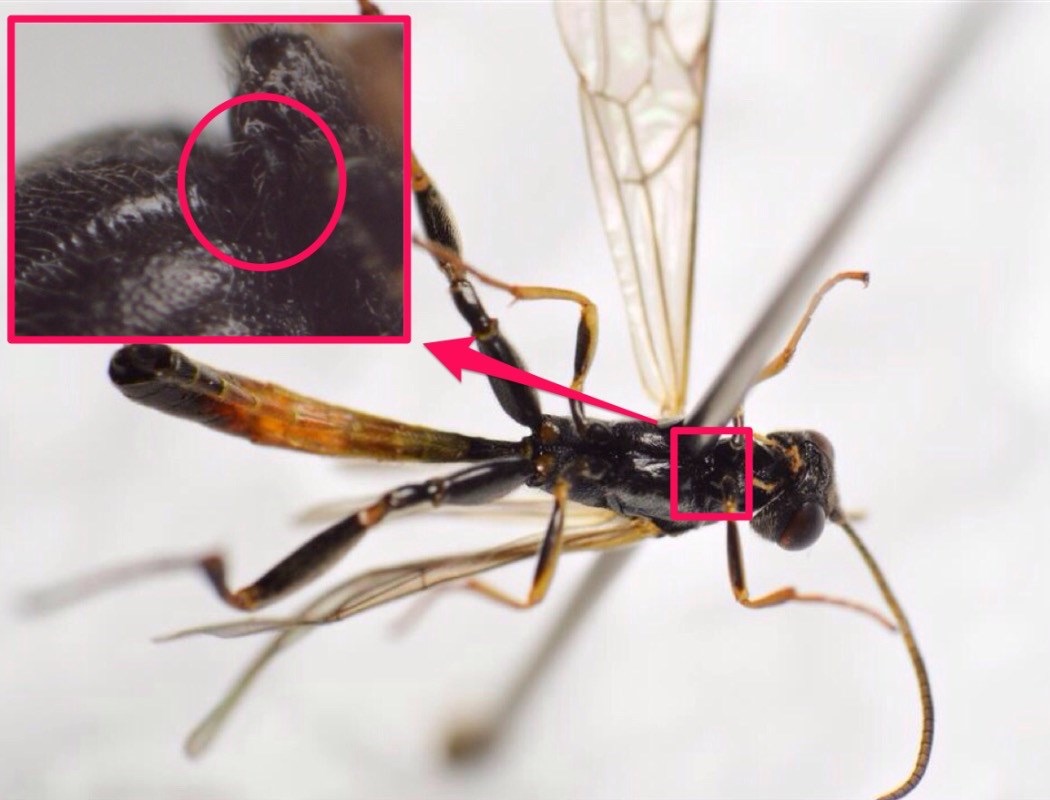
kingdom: Animalia
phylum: Arthropoda
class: Insecta
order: Hymenoptera
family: Ichneumonidae
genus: Collyria
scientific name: Collyria trichophthalma
